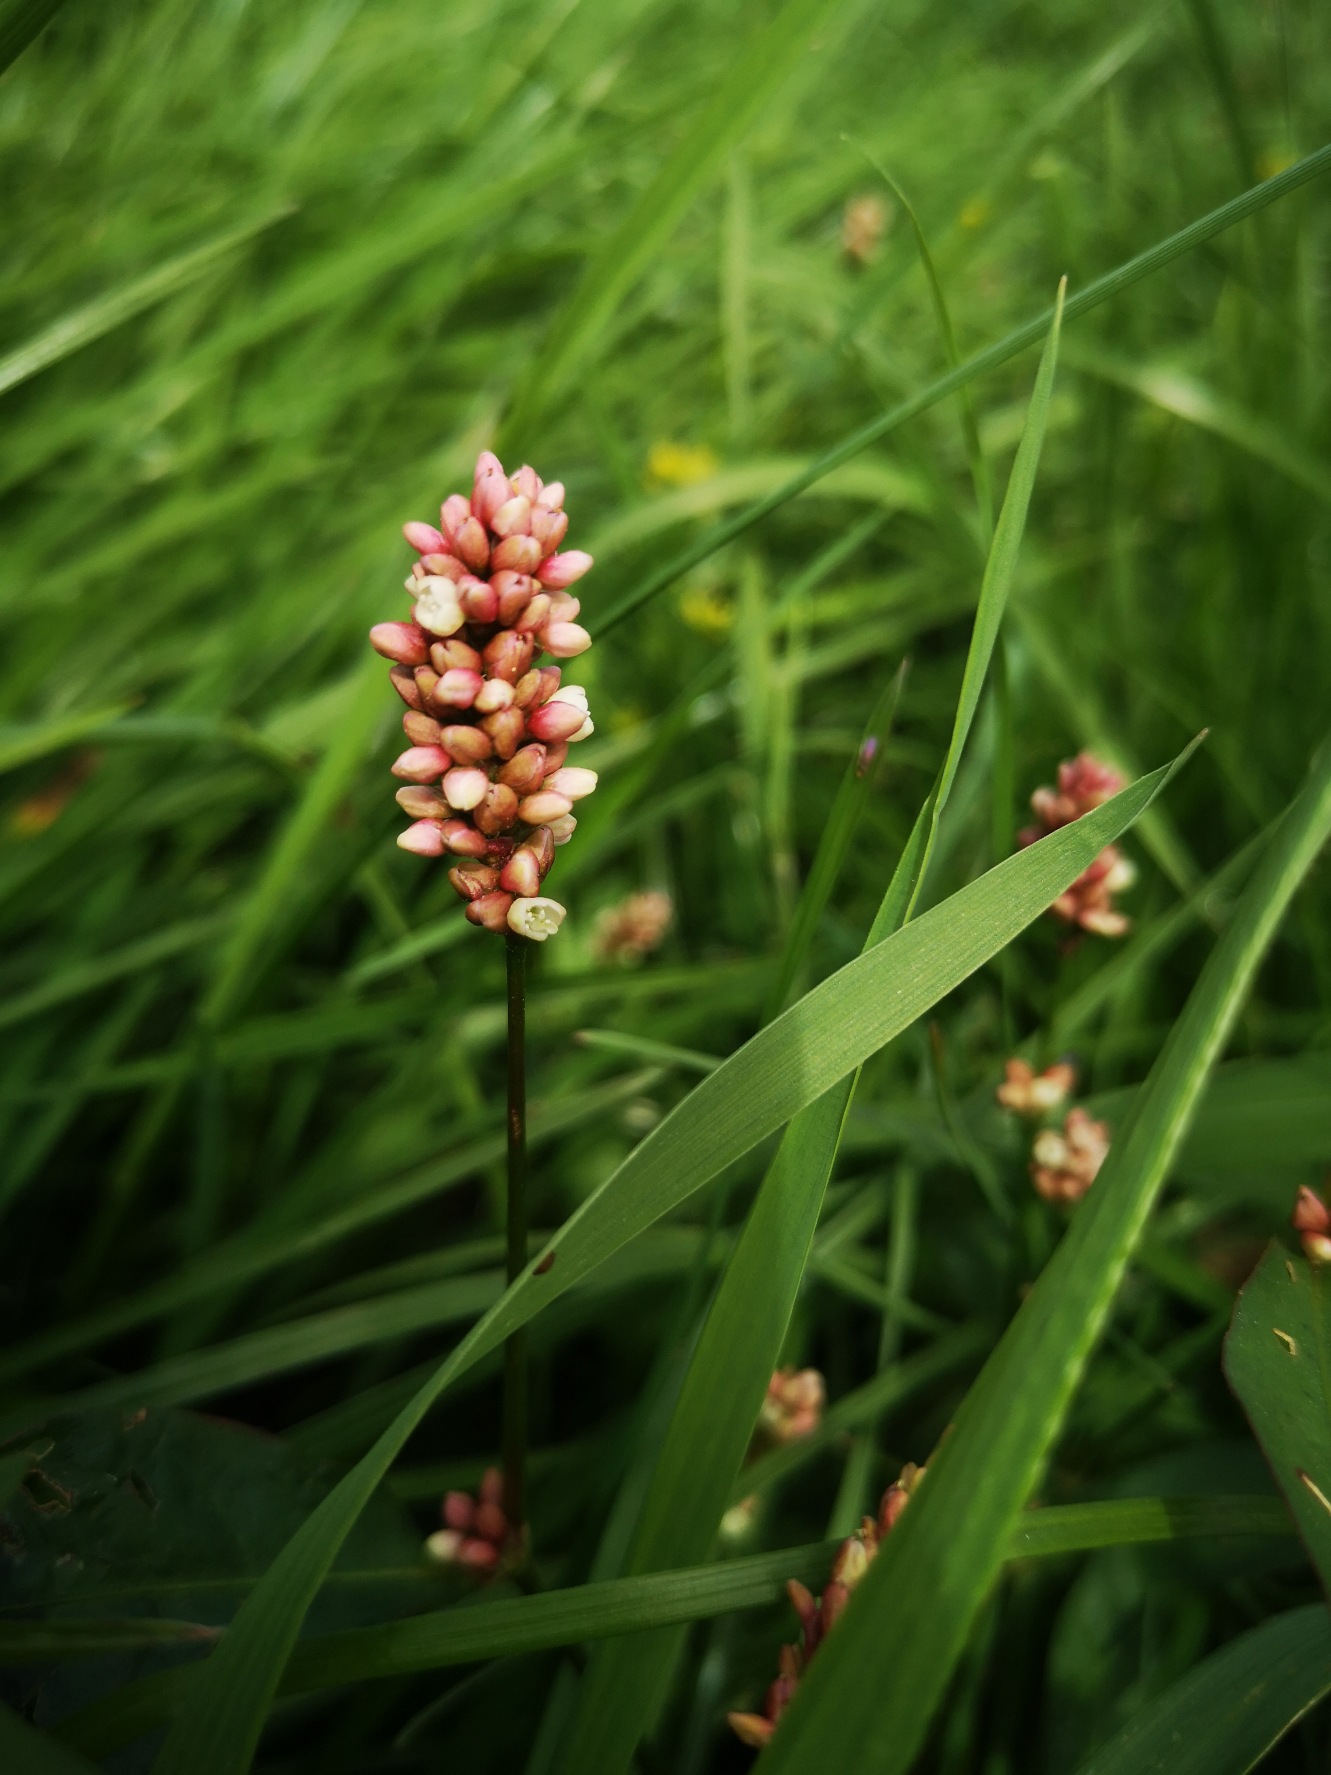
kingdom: Plantae
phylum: Tracheophyta
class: Magnoliopsida
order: Caryophyllales
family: Polygonaceae
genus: Persicaria
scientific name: Persicaria maculosa
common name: Fersken-pileurt
